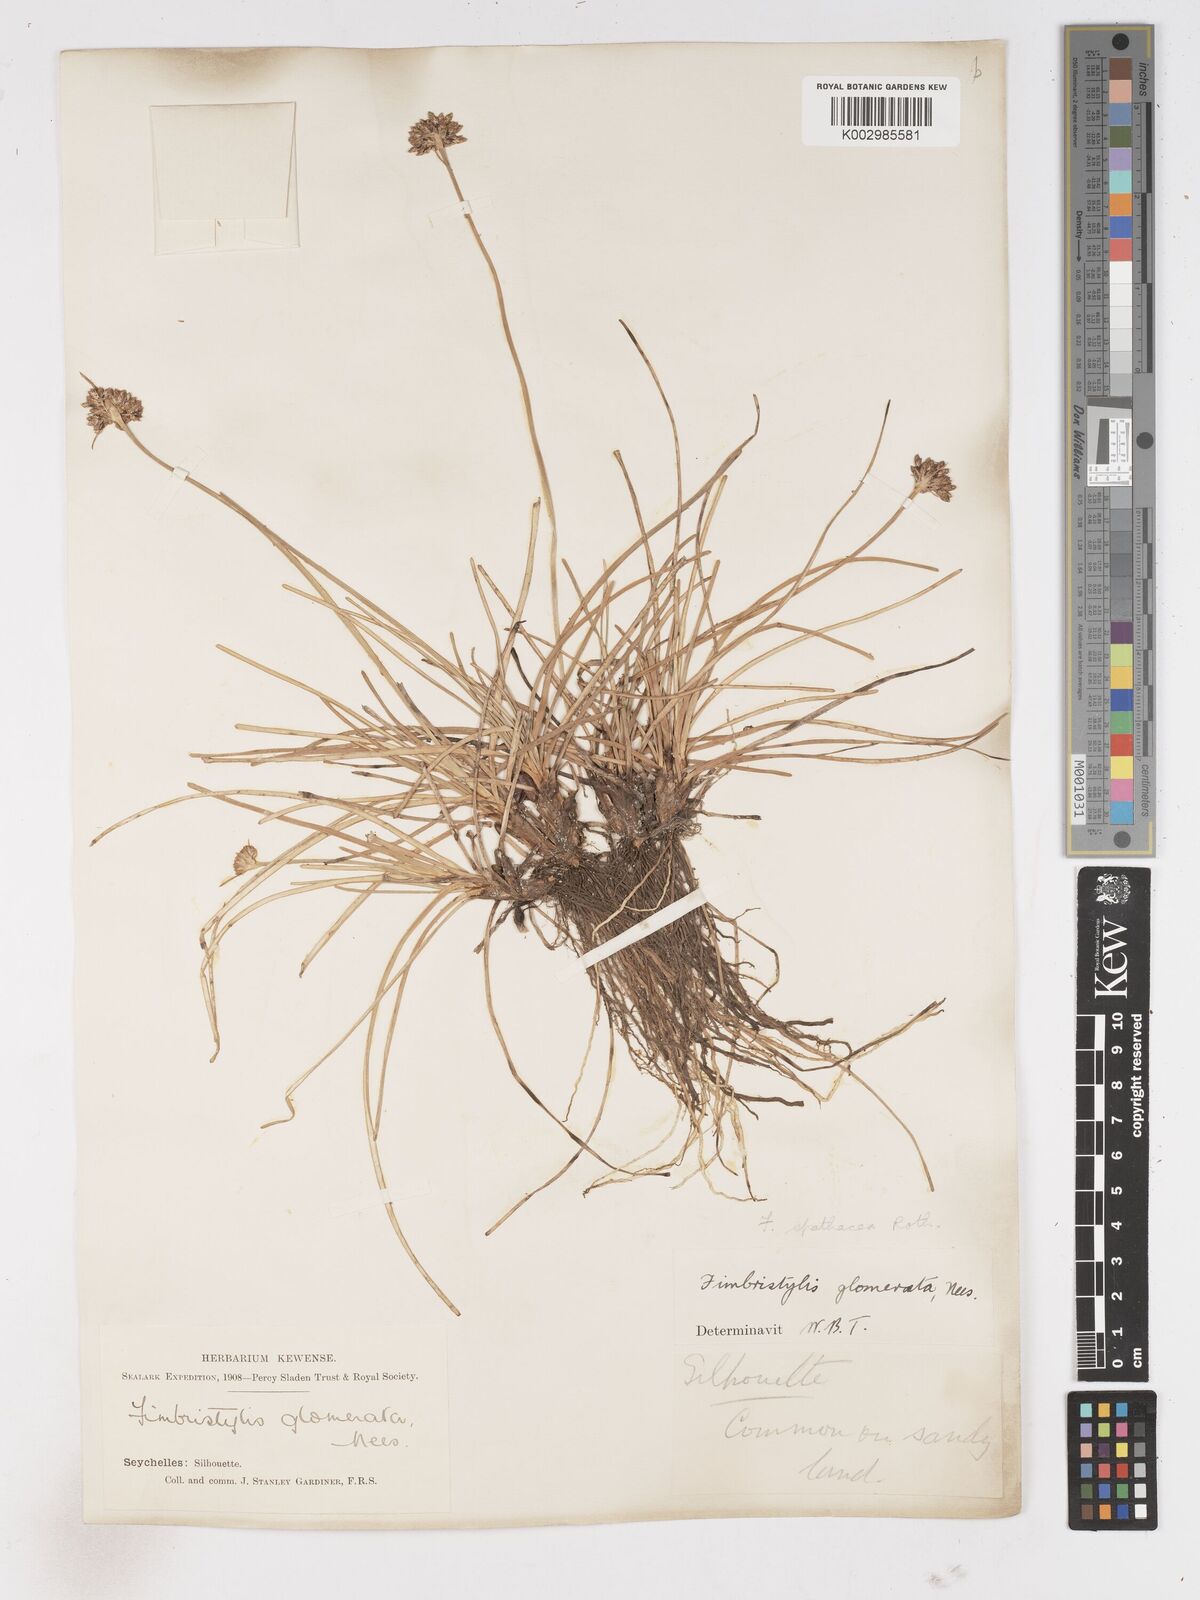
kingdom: Plantae
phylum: Tracheophyta
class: Liliopsida
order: Poales
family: Cyperaceae
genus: Fimbristylis
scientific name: Fimbristylis cymosa
